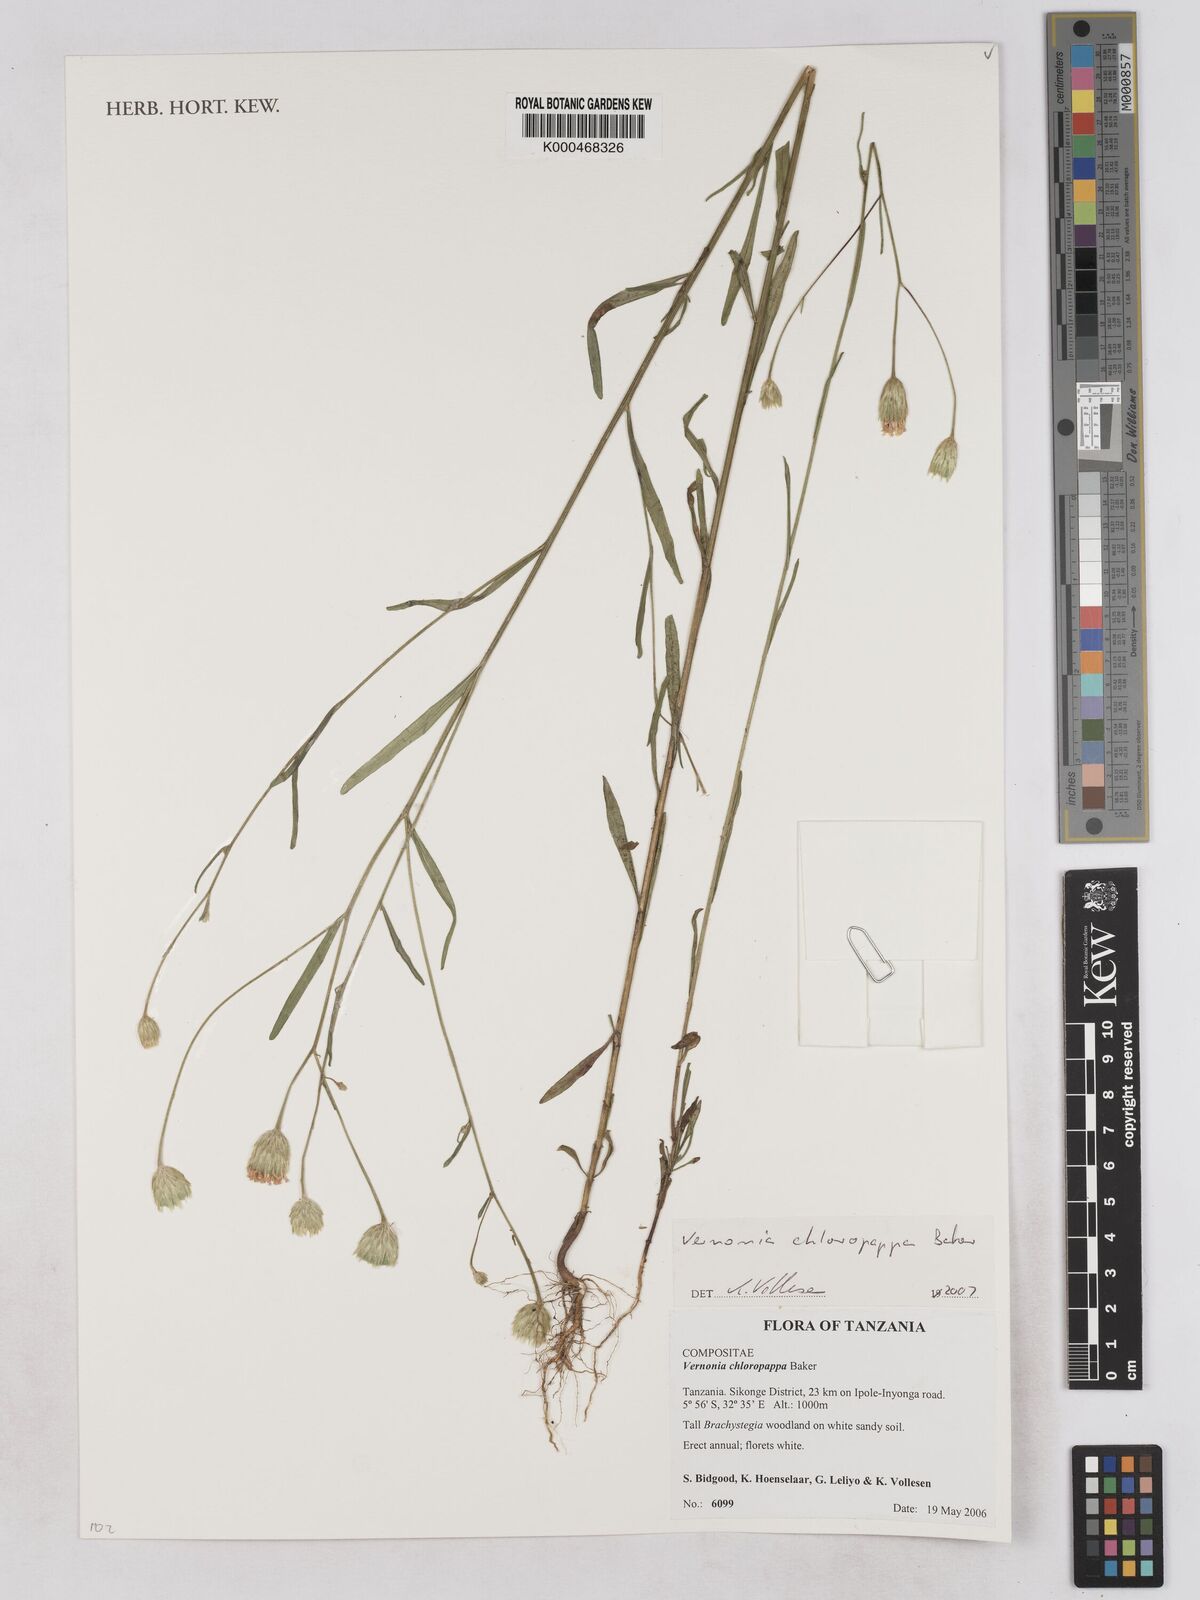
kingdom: Plantae
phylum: Tracheophyta
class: Magnoliopsida
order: Asterales
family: Asteraceae
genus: Crystallopollen
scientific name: Crystallopollen chloropappum
